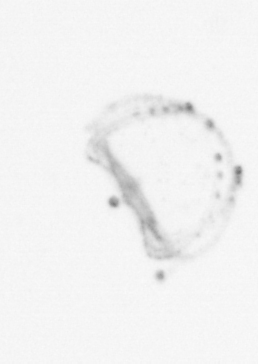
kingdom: Animalia
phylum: Cnidaria
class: Hydrozoa
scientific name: Hydrozoa
